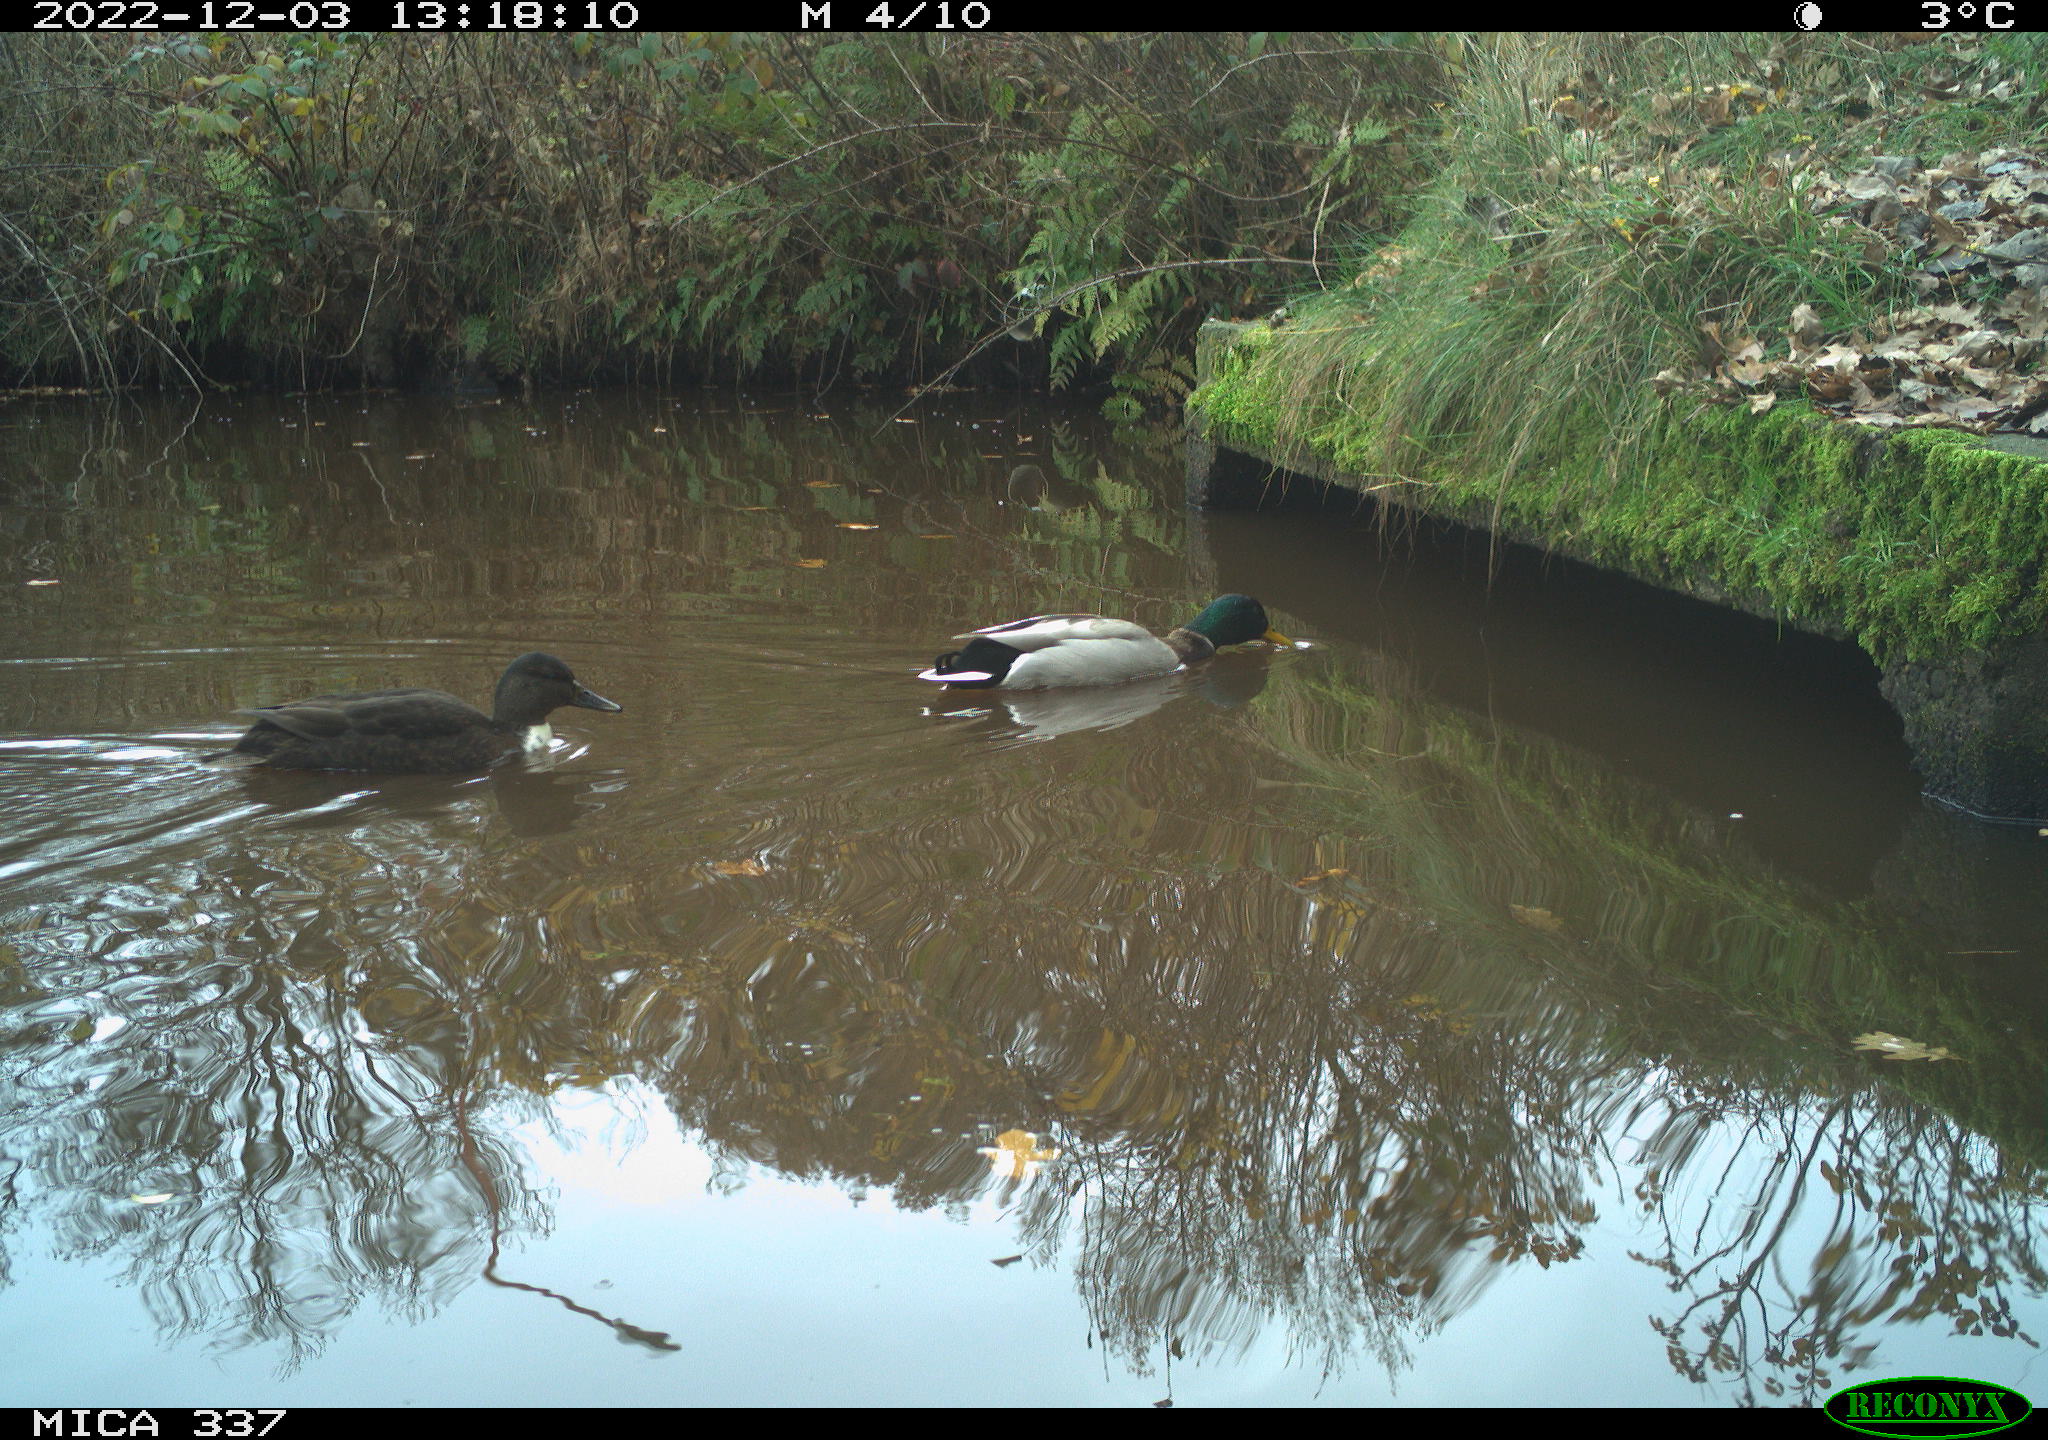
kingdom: Animalia
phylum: Chordata
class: Aves
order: Anseriformes
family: Anatidae
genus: Anas
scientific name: Anas
